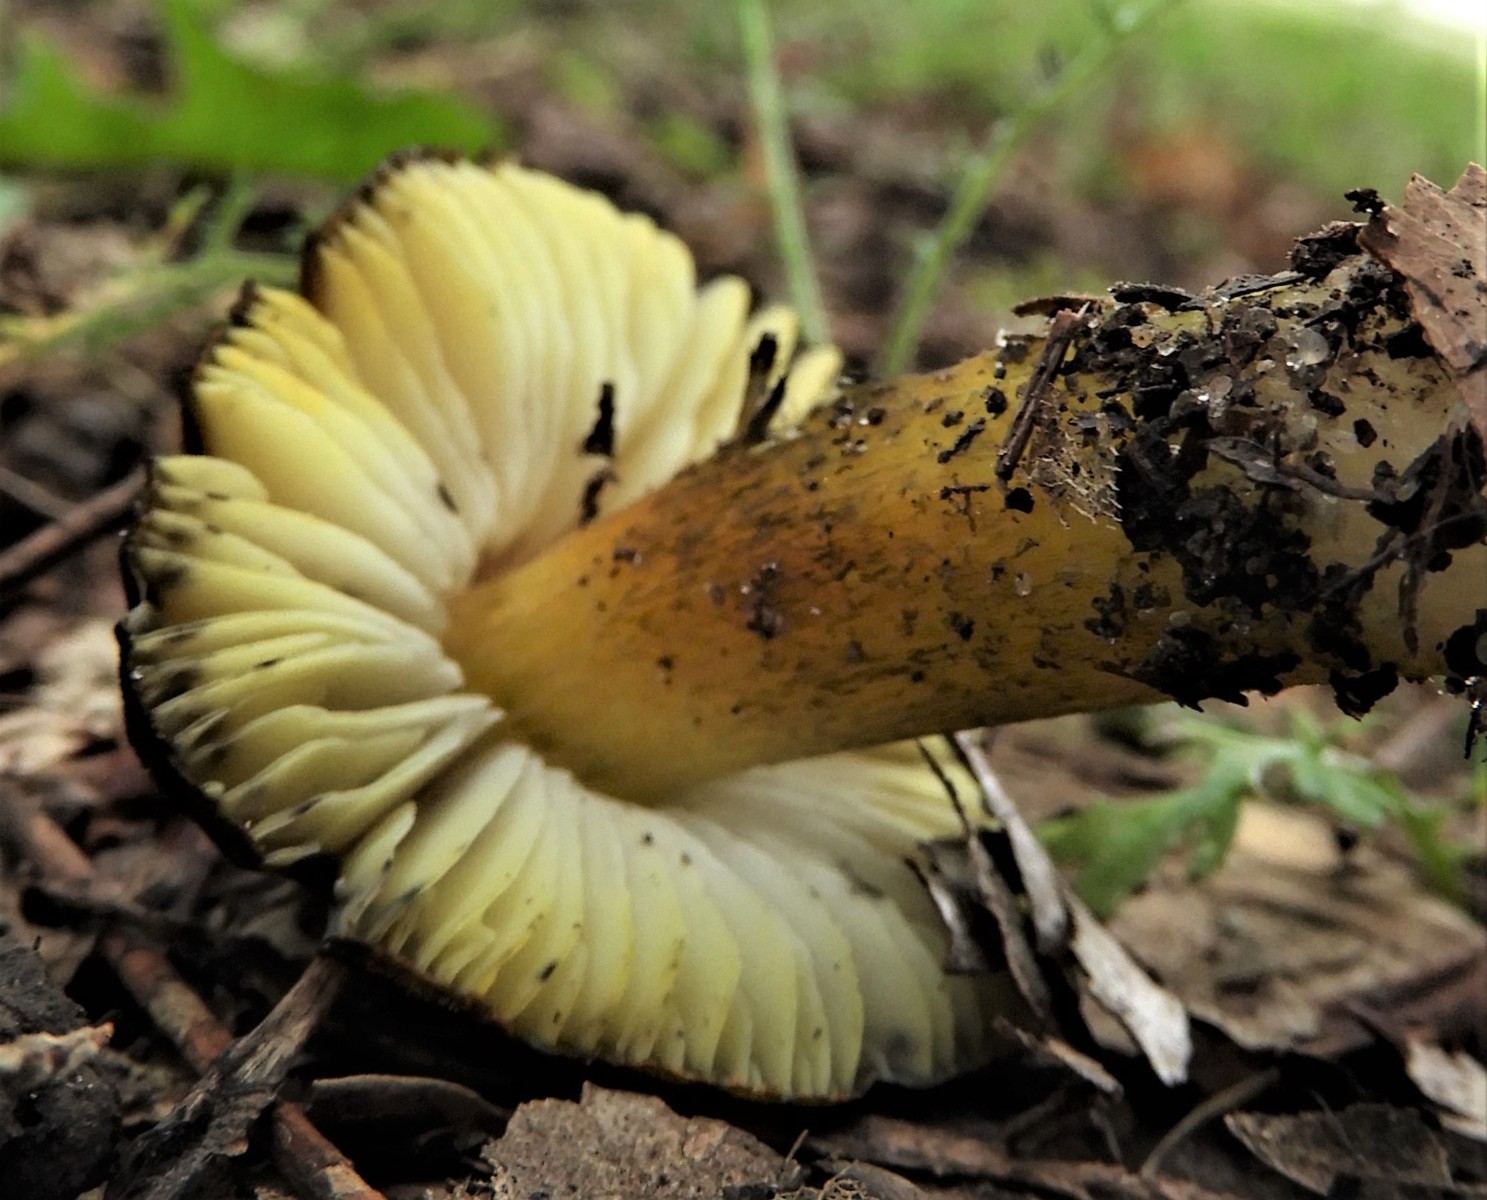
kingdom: Fungi
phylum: Basidiomycota
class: Agaricomycetes
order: Agaricales
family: Hygrophoraceae
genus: Hygrocybe
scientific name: Hygrocybe conica
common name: kegle-vokshat
